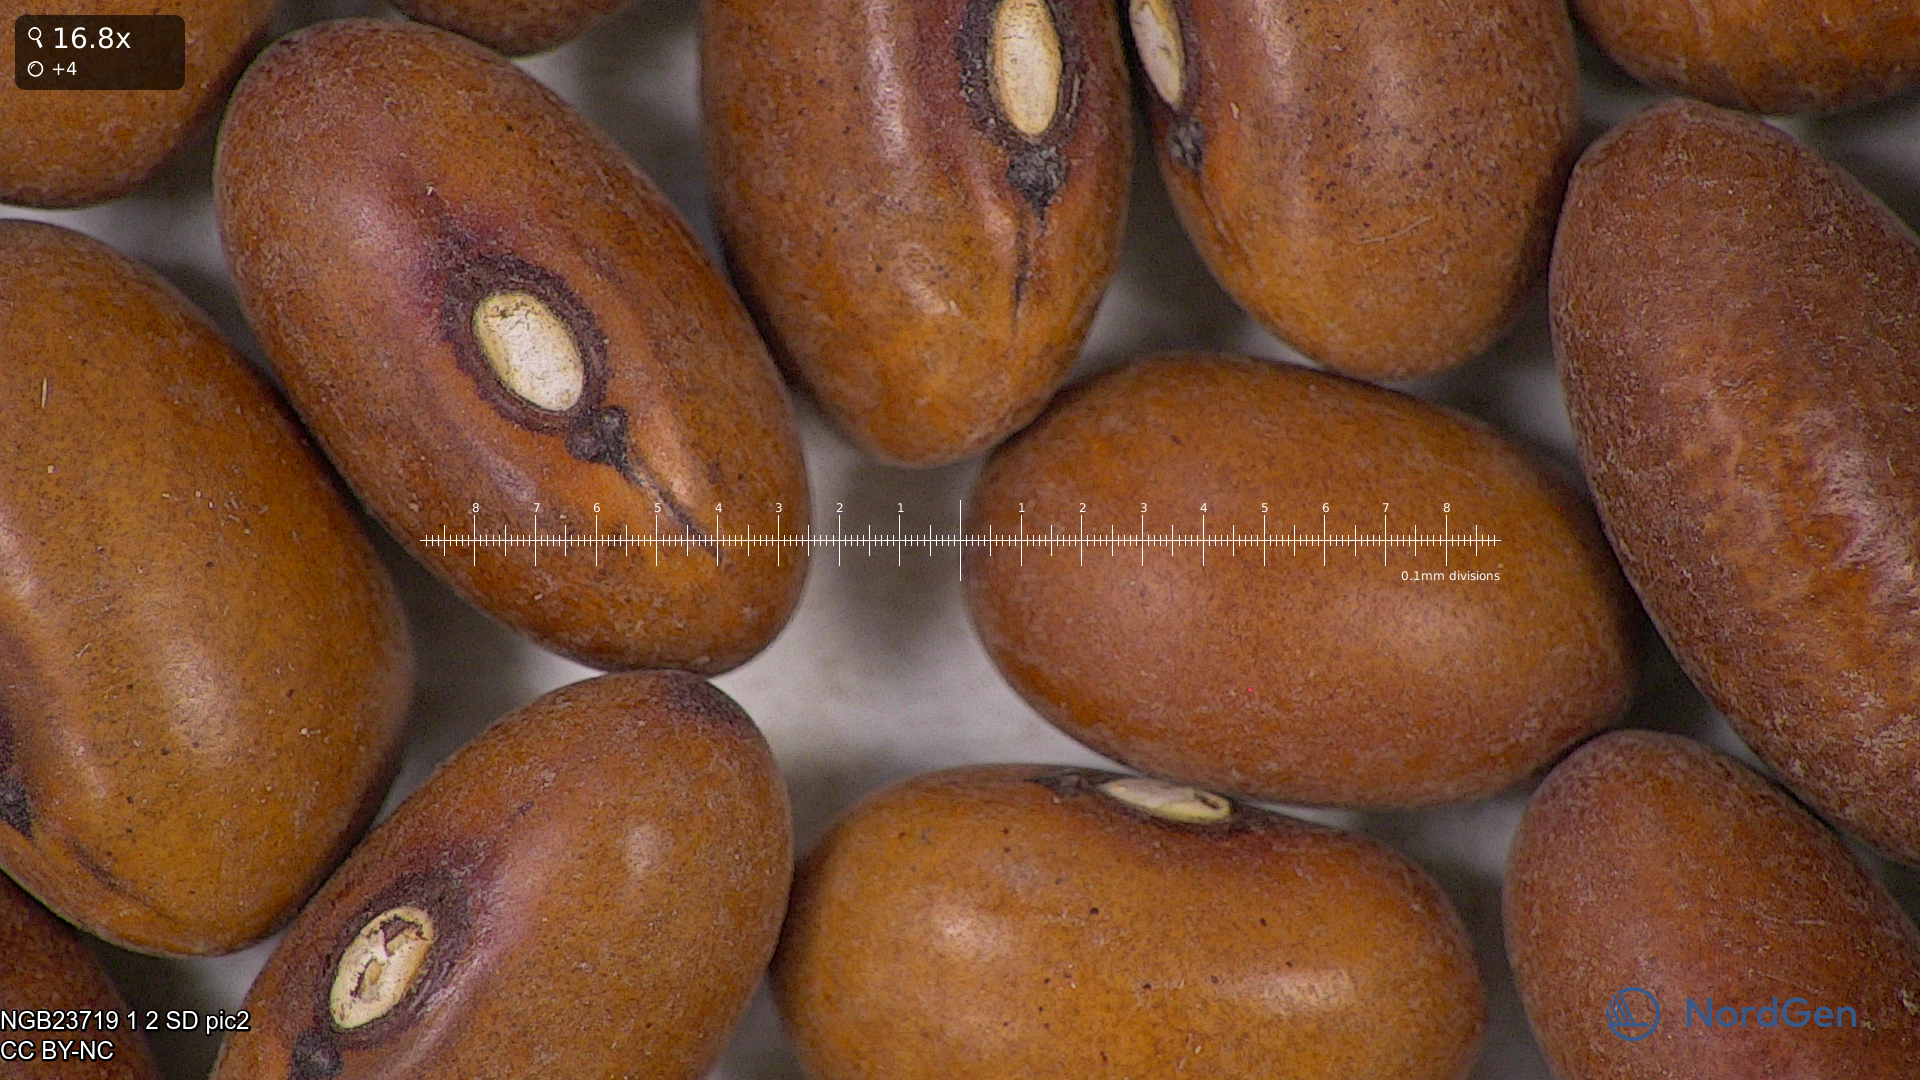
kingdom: Plantae
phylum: Tracheophyta
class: Magnoliopsida
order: Fabales
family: Fabaceae
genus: Phaseolus
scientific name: Phaseolus vulgaris
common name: Bean
